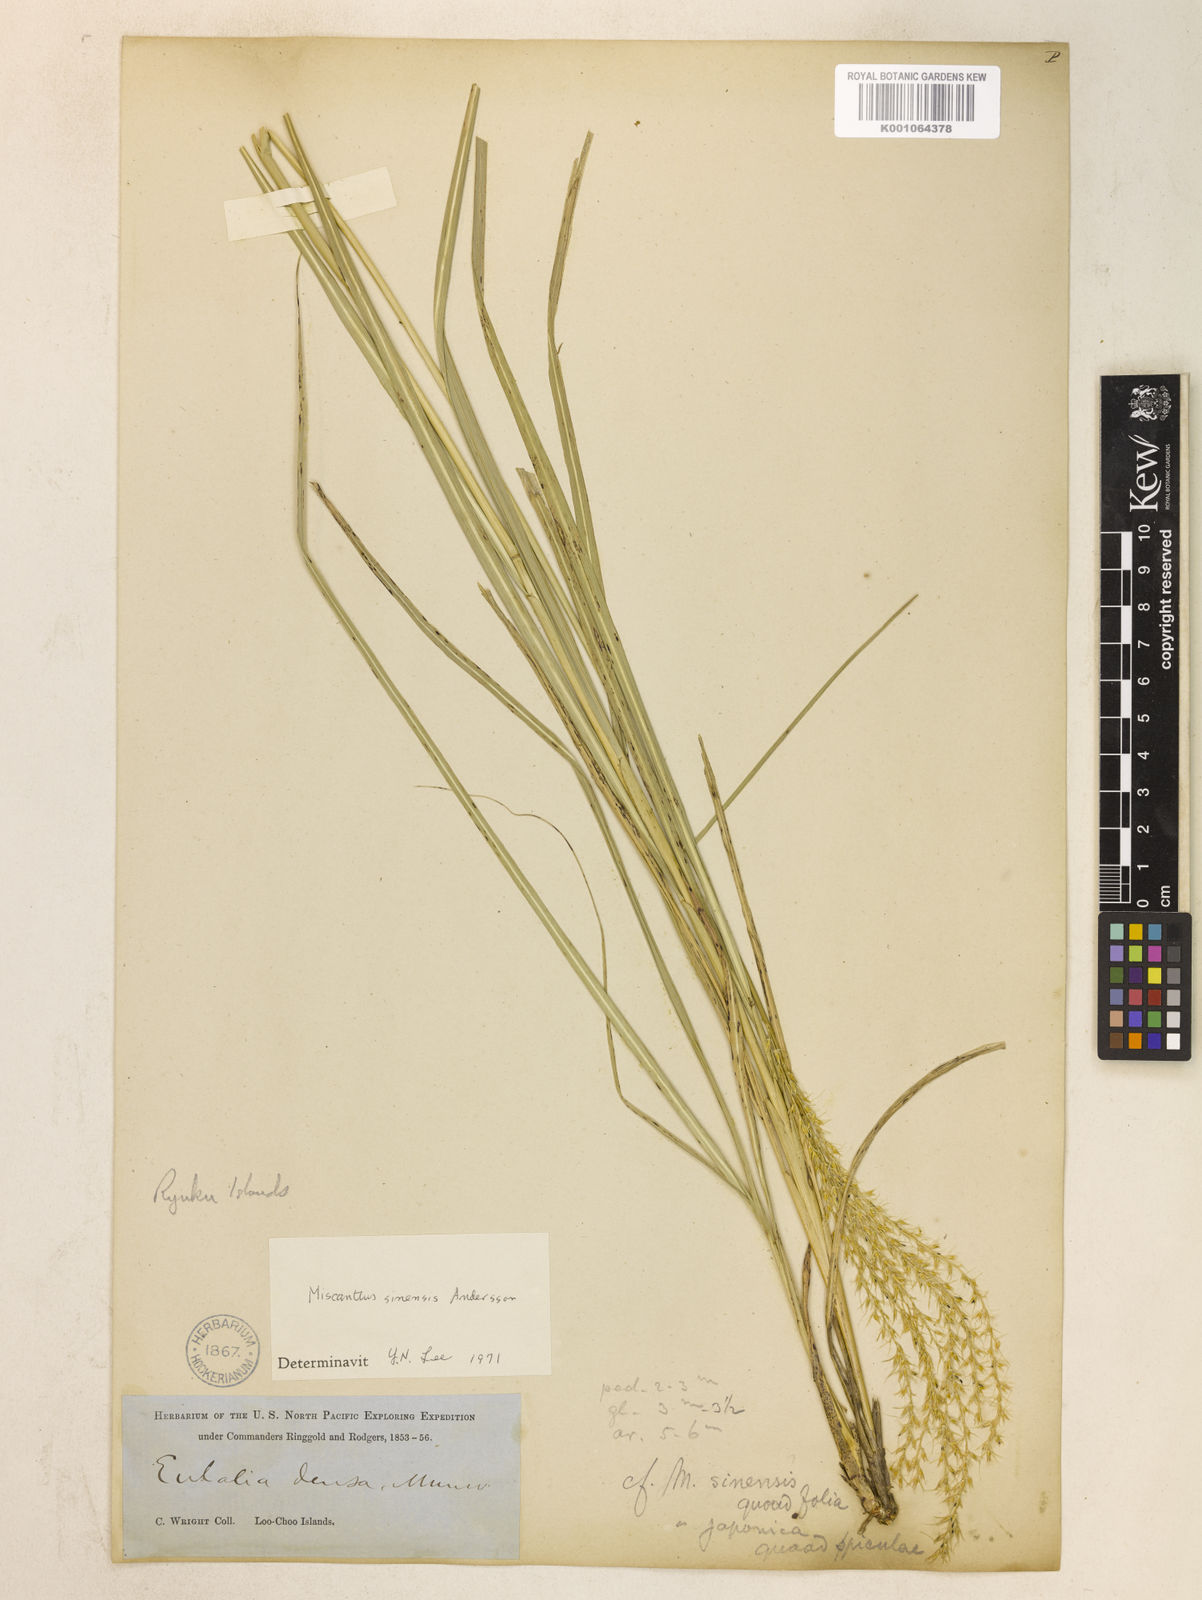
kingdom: Plantae
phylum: Tracheophyta
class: Liliopsida
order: Poales
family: Poaceae
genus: Miscanthus
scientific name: Miscanthus sinensis
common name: Chinese silvergrass
